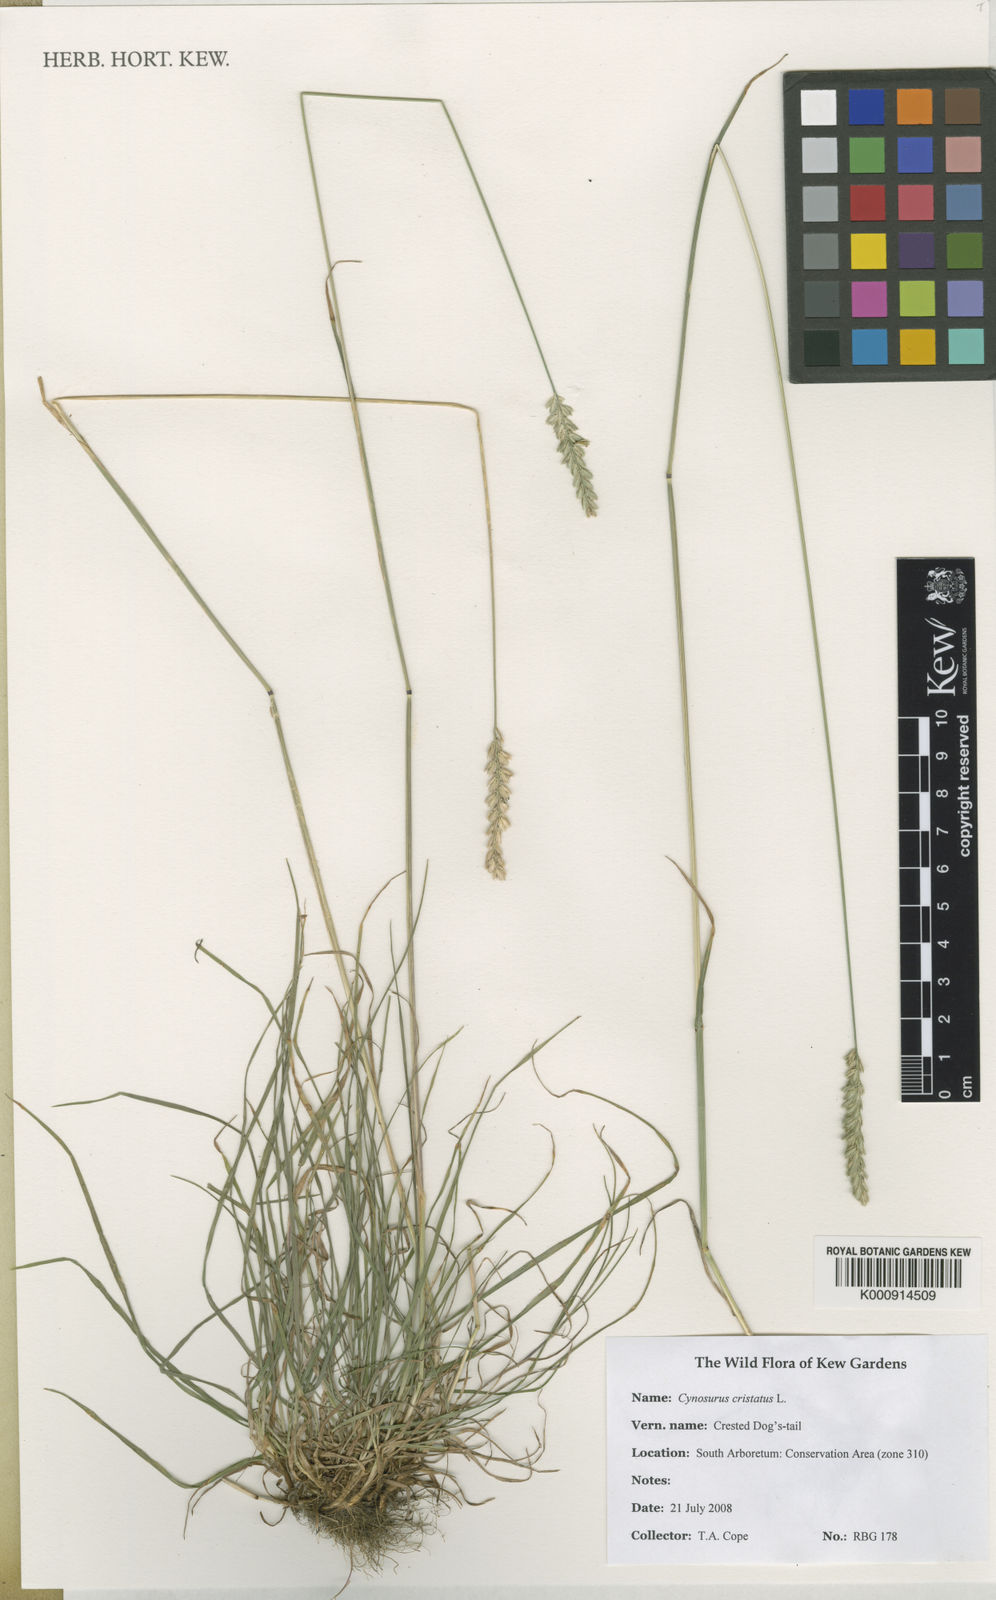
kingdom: Plantae
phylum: Tracheophyta
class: Liliopsida
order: Poales
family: Poaceae
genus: Cynosurus
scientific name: Cynosurus cristatus
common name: Crested dog's-tail
